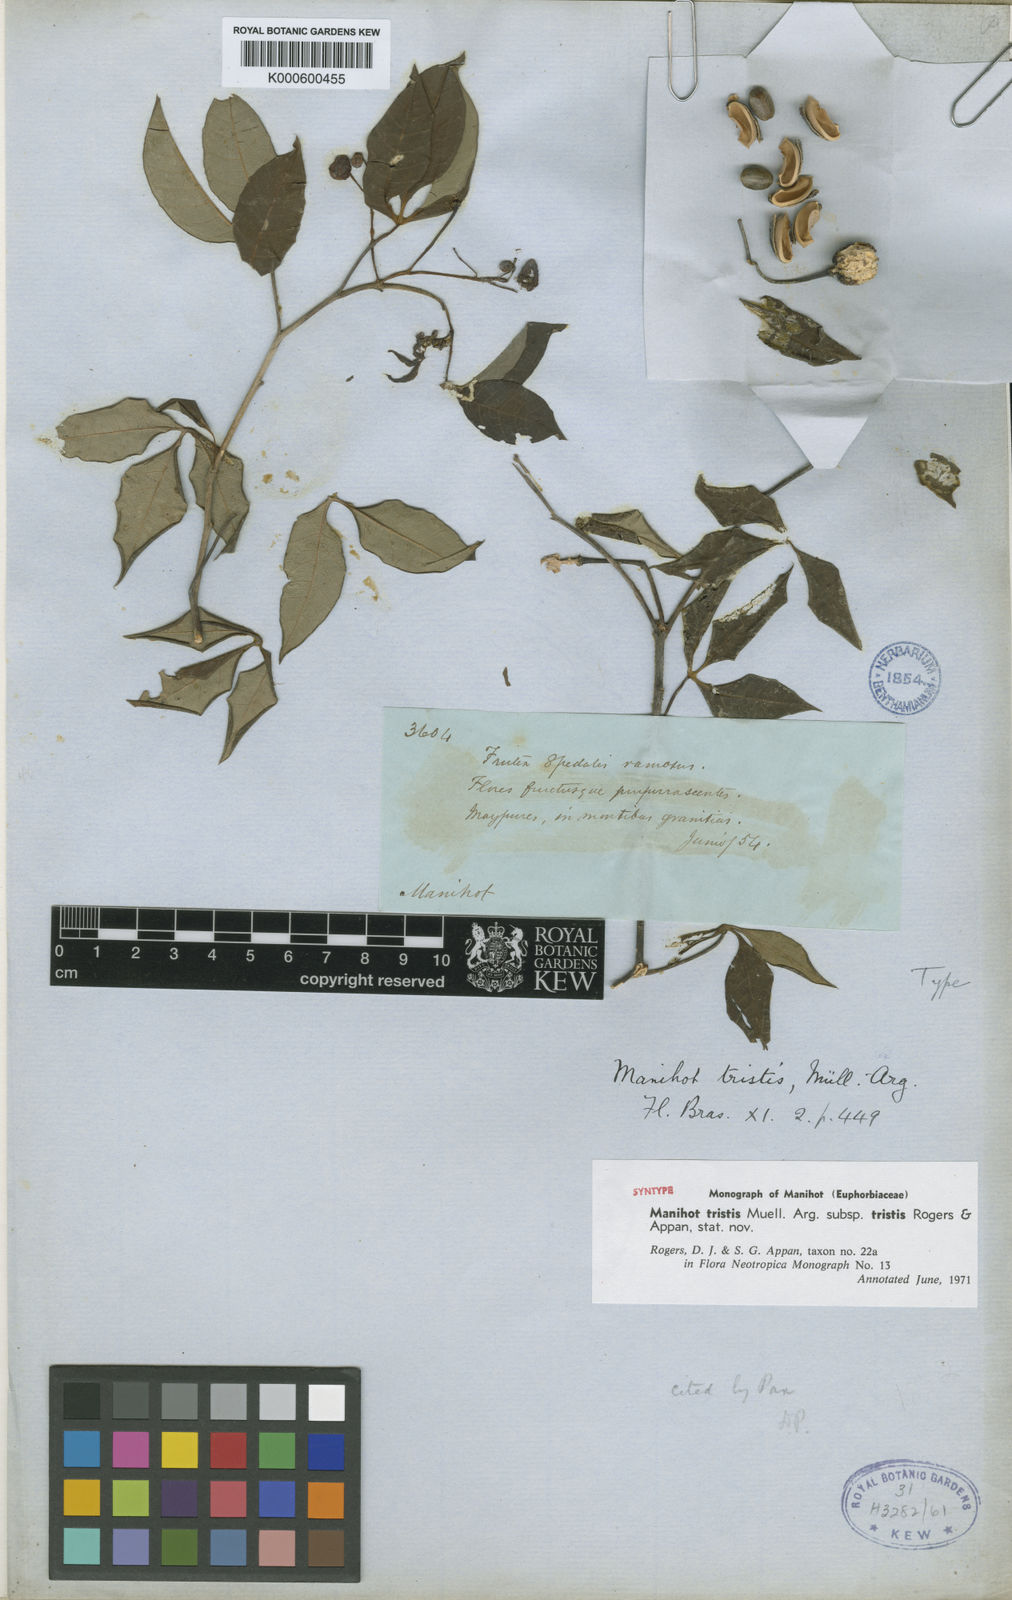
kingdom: Plantae
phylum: Tracheophyta
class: Magnoliopsida
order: Malpighiales
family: Euphorbiaceae
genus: Manihot
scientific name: Manihot
